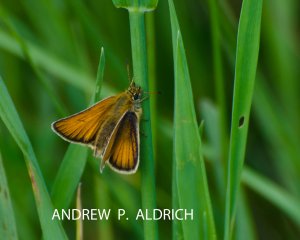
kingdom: Animalia
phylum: Arthropoda
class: Insecta
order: Lepidoptera
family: Hesperiidae
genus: Thymelicus
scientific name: Thymelicus lineola
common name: European Skipper
